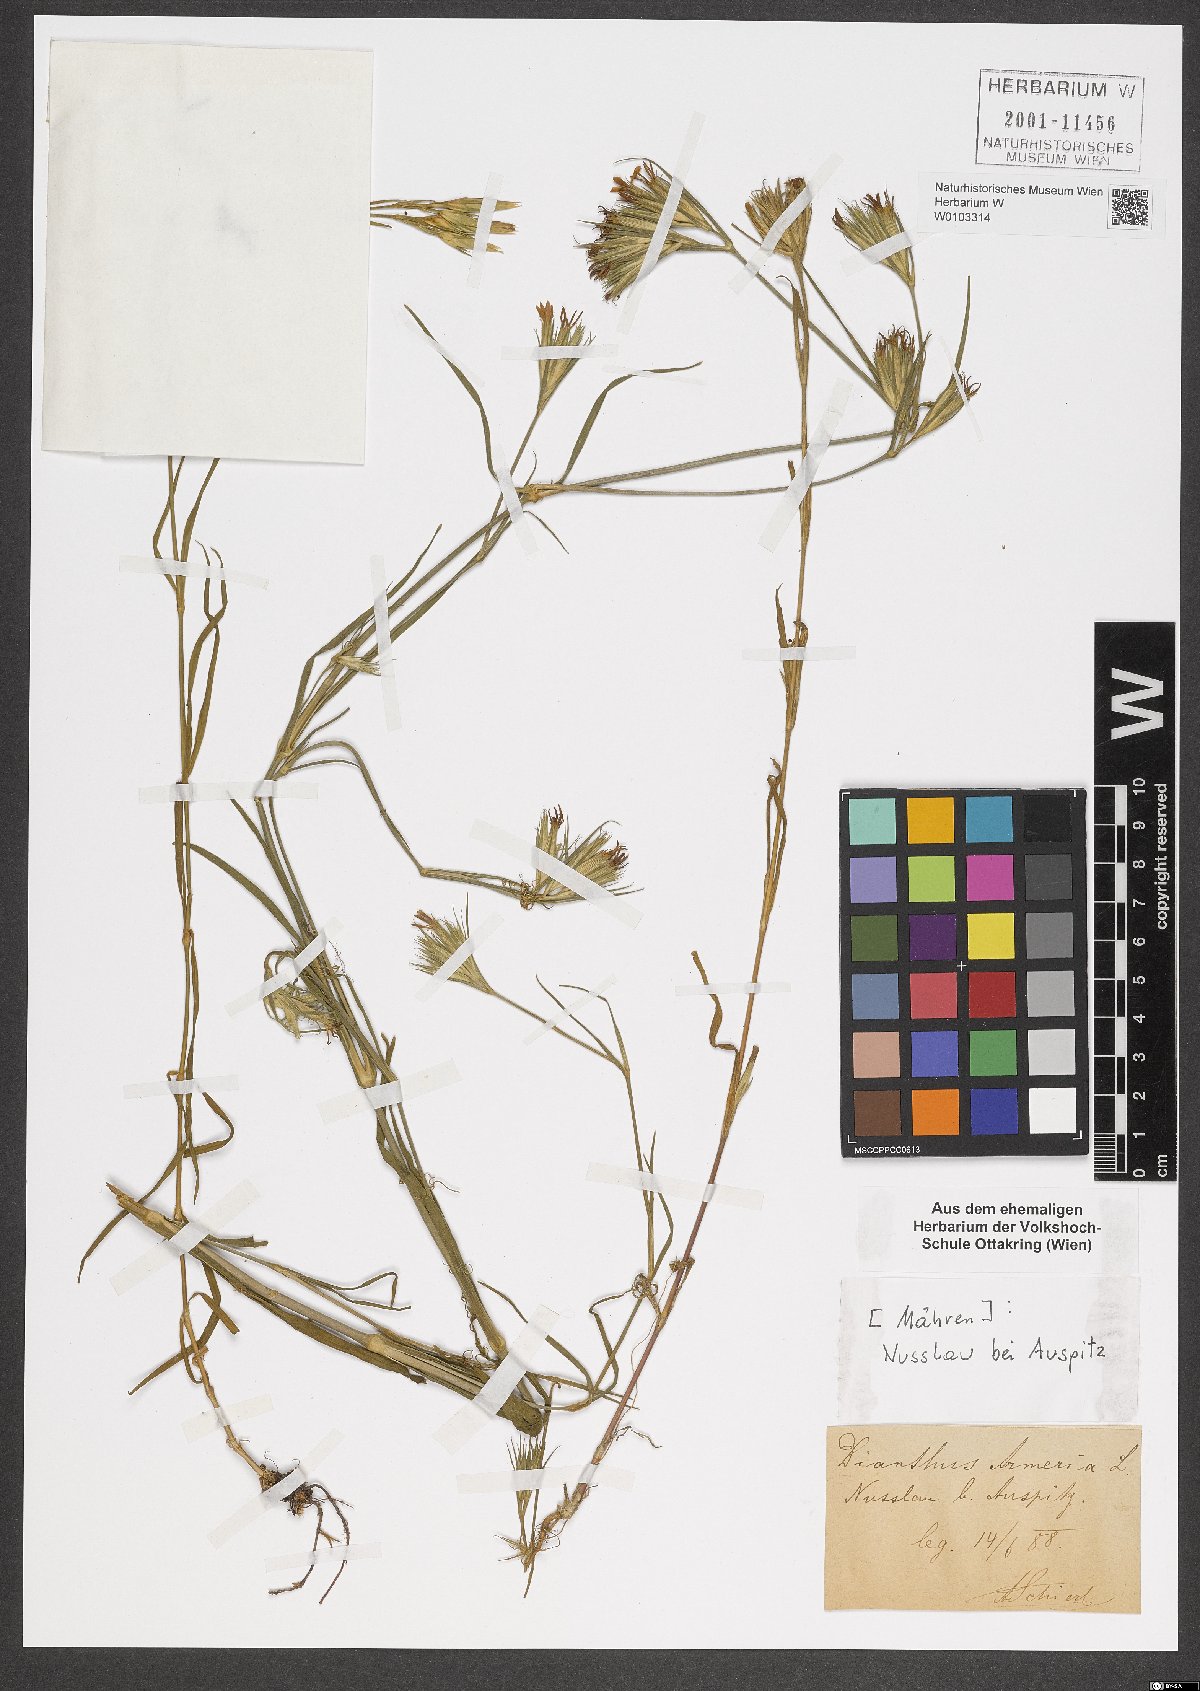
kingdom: Plantae
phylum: Tracheophyta
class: Magnoliopsida
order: Caryophyllales
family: Caryophyllaceae
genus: Dianthus
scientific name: Dianthus armeria
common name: Deptford pink
